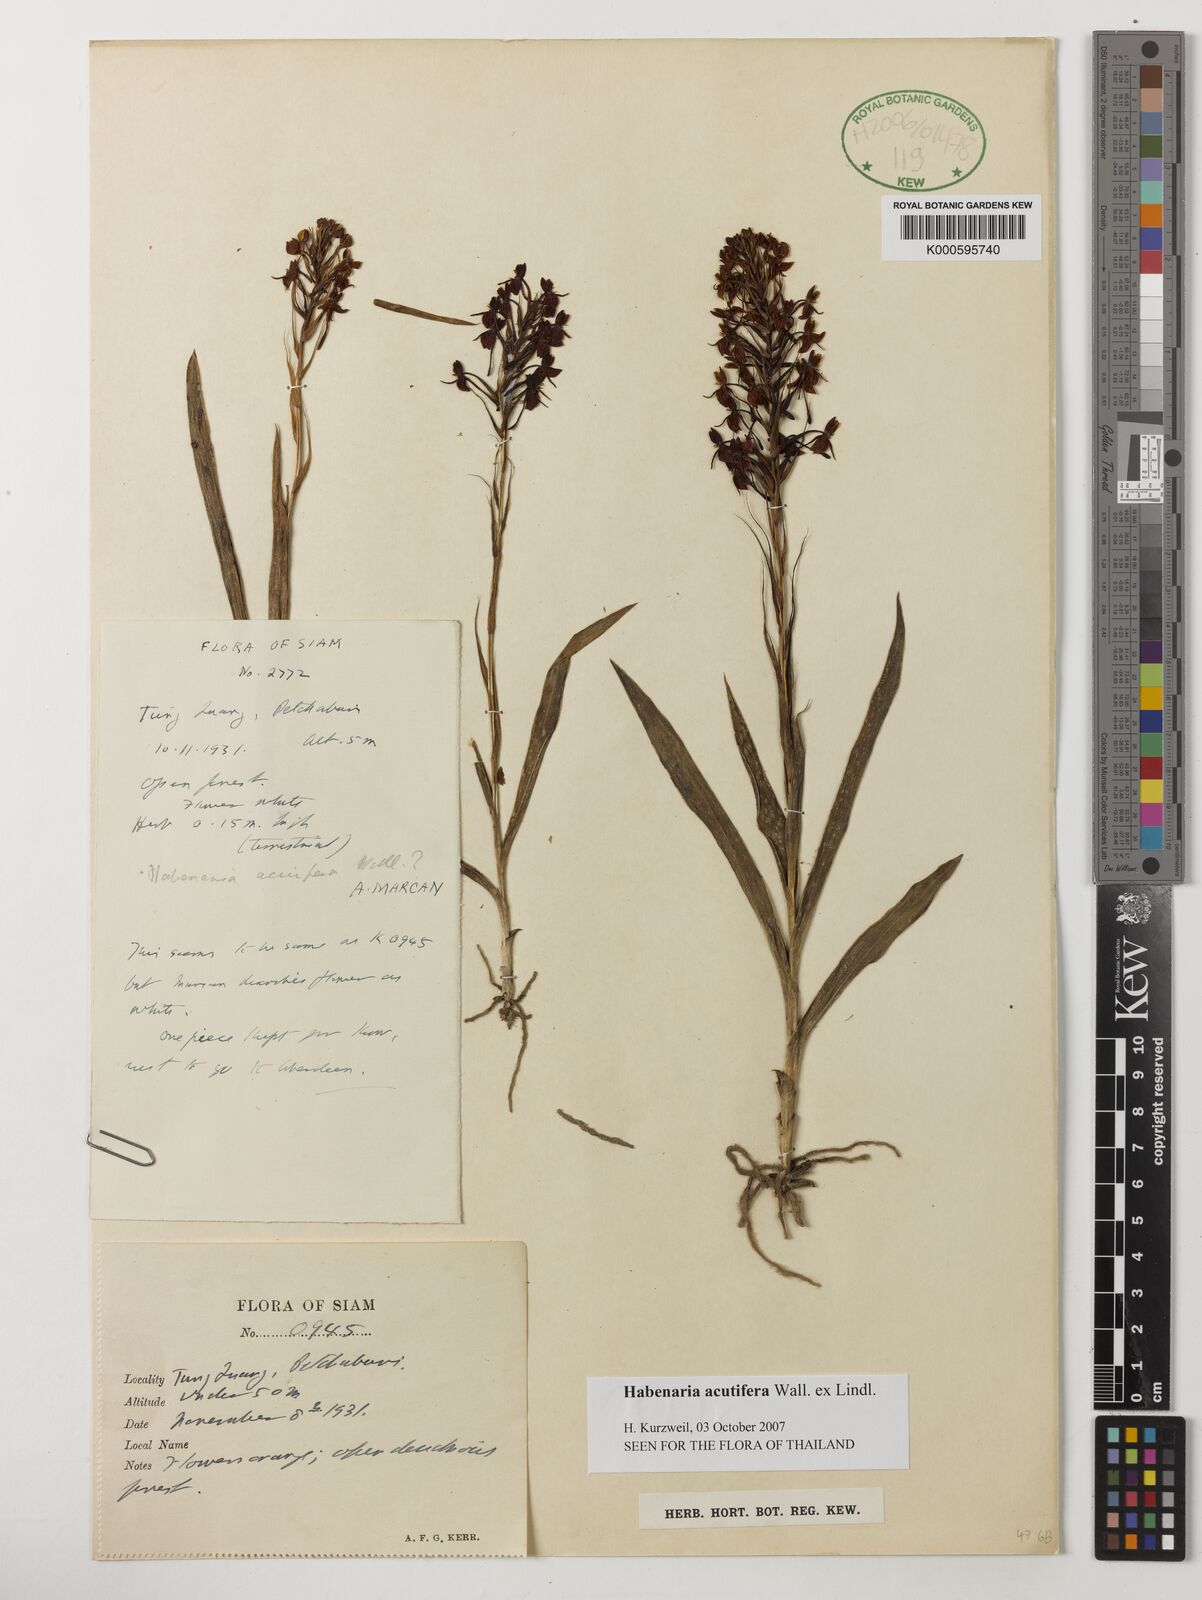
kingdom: Plantae
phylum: Tracheophyta
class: Liliopsida
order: Asparagales
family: Orchidaceae
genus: Habenaria
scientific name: Habenaria acuifera
